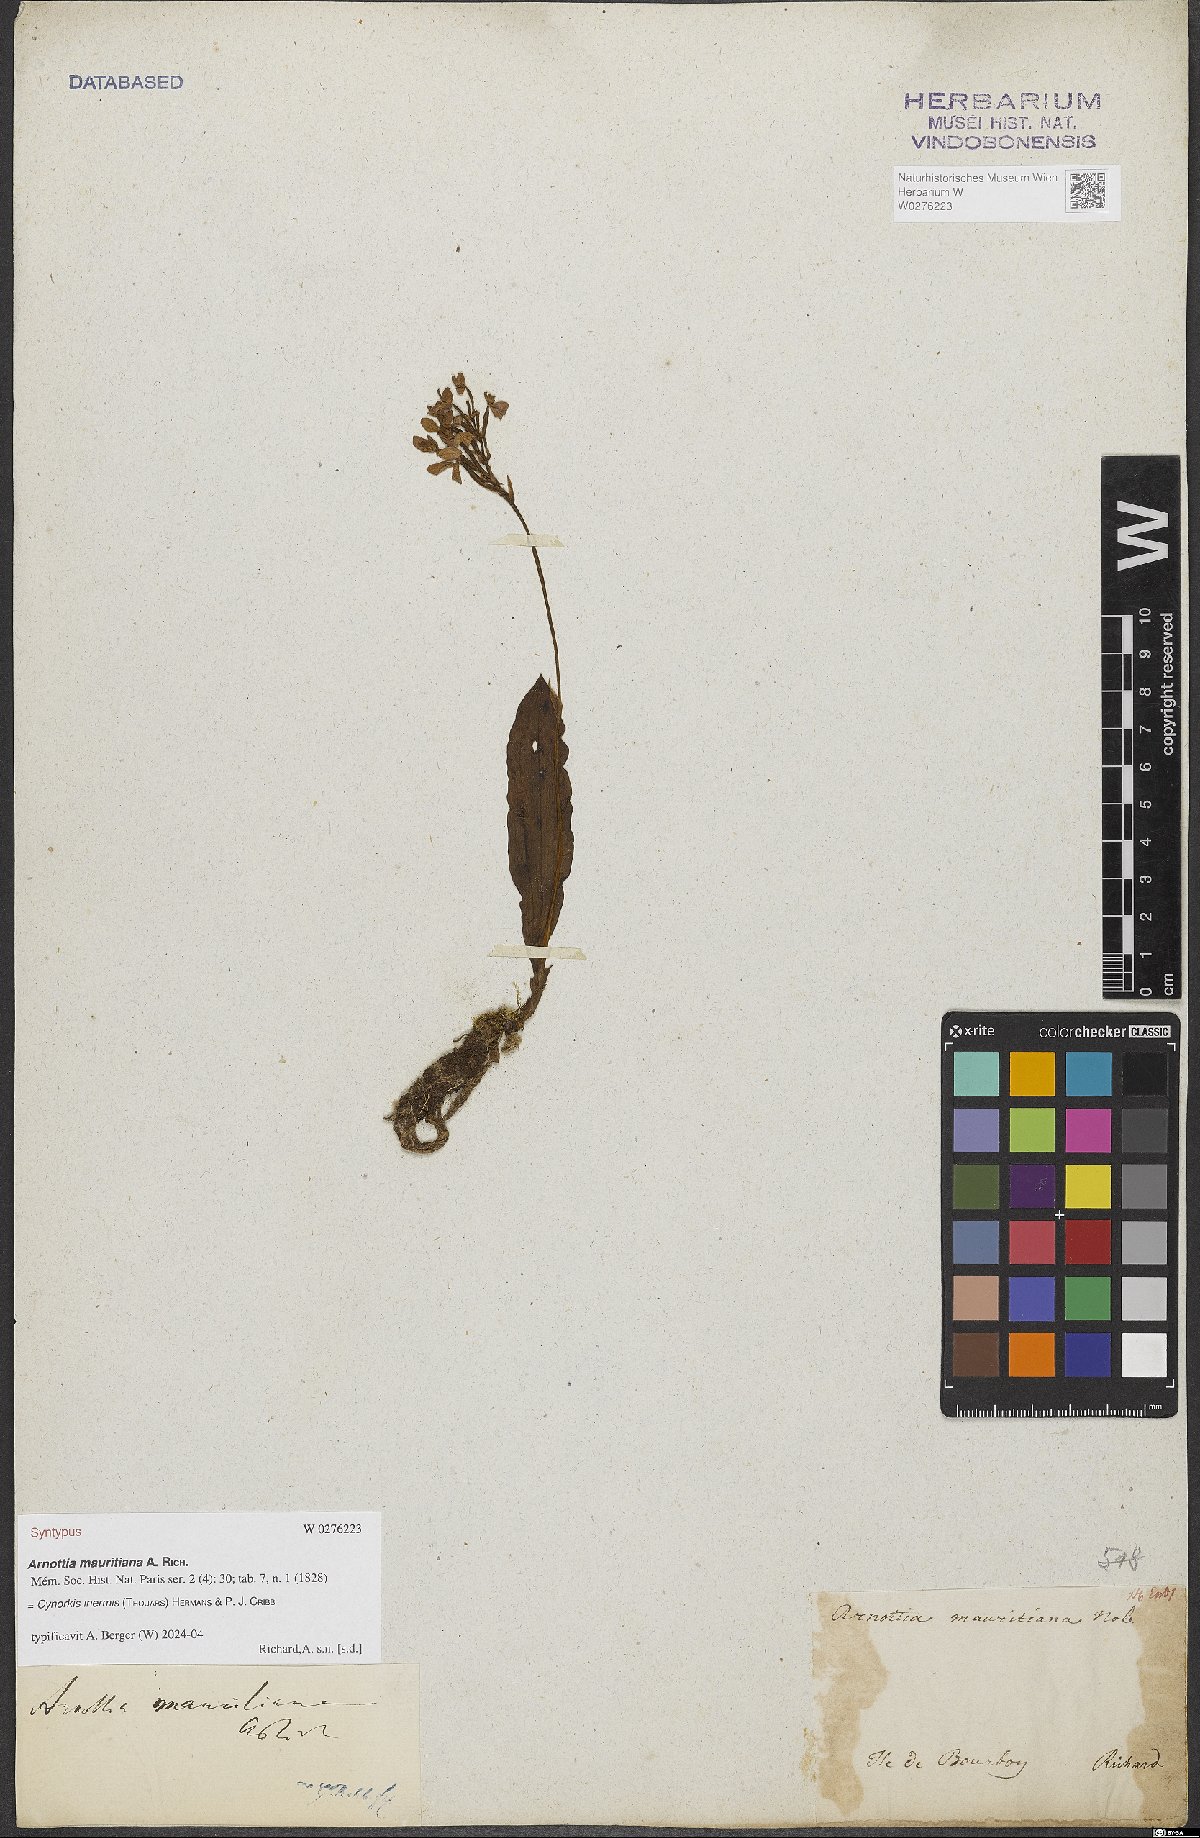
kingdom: Plantae
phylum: Tracheophyta
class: Liliopsida
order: Asparagales
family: Orchidaceae
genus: Cynorkis
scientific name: Cynorkis inermis
